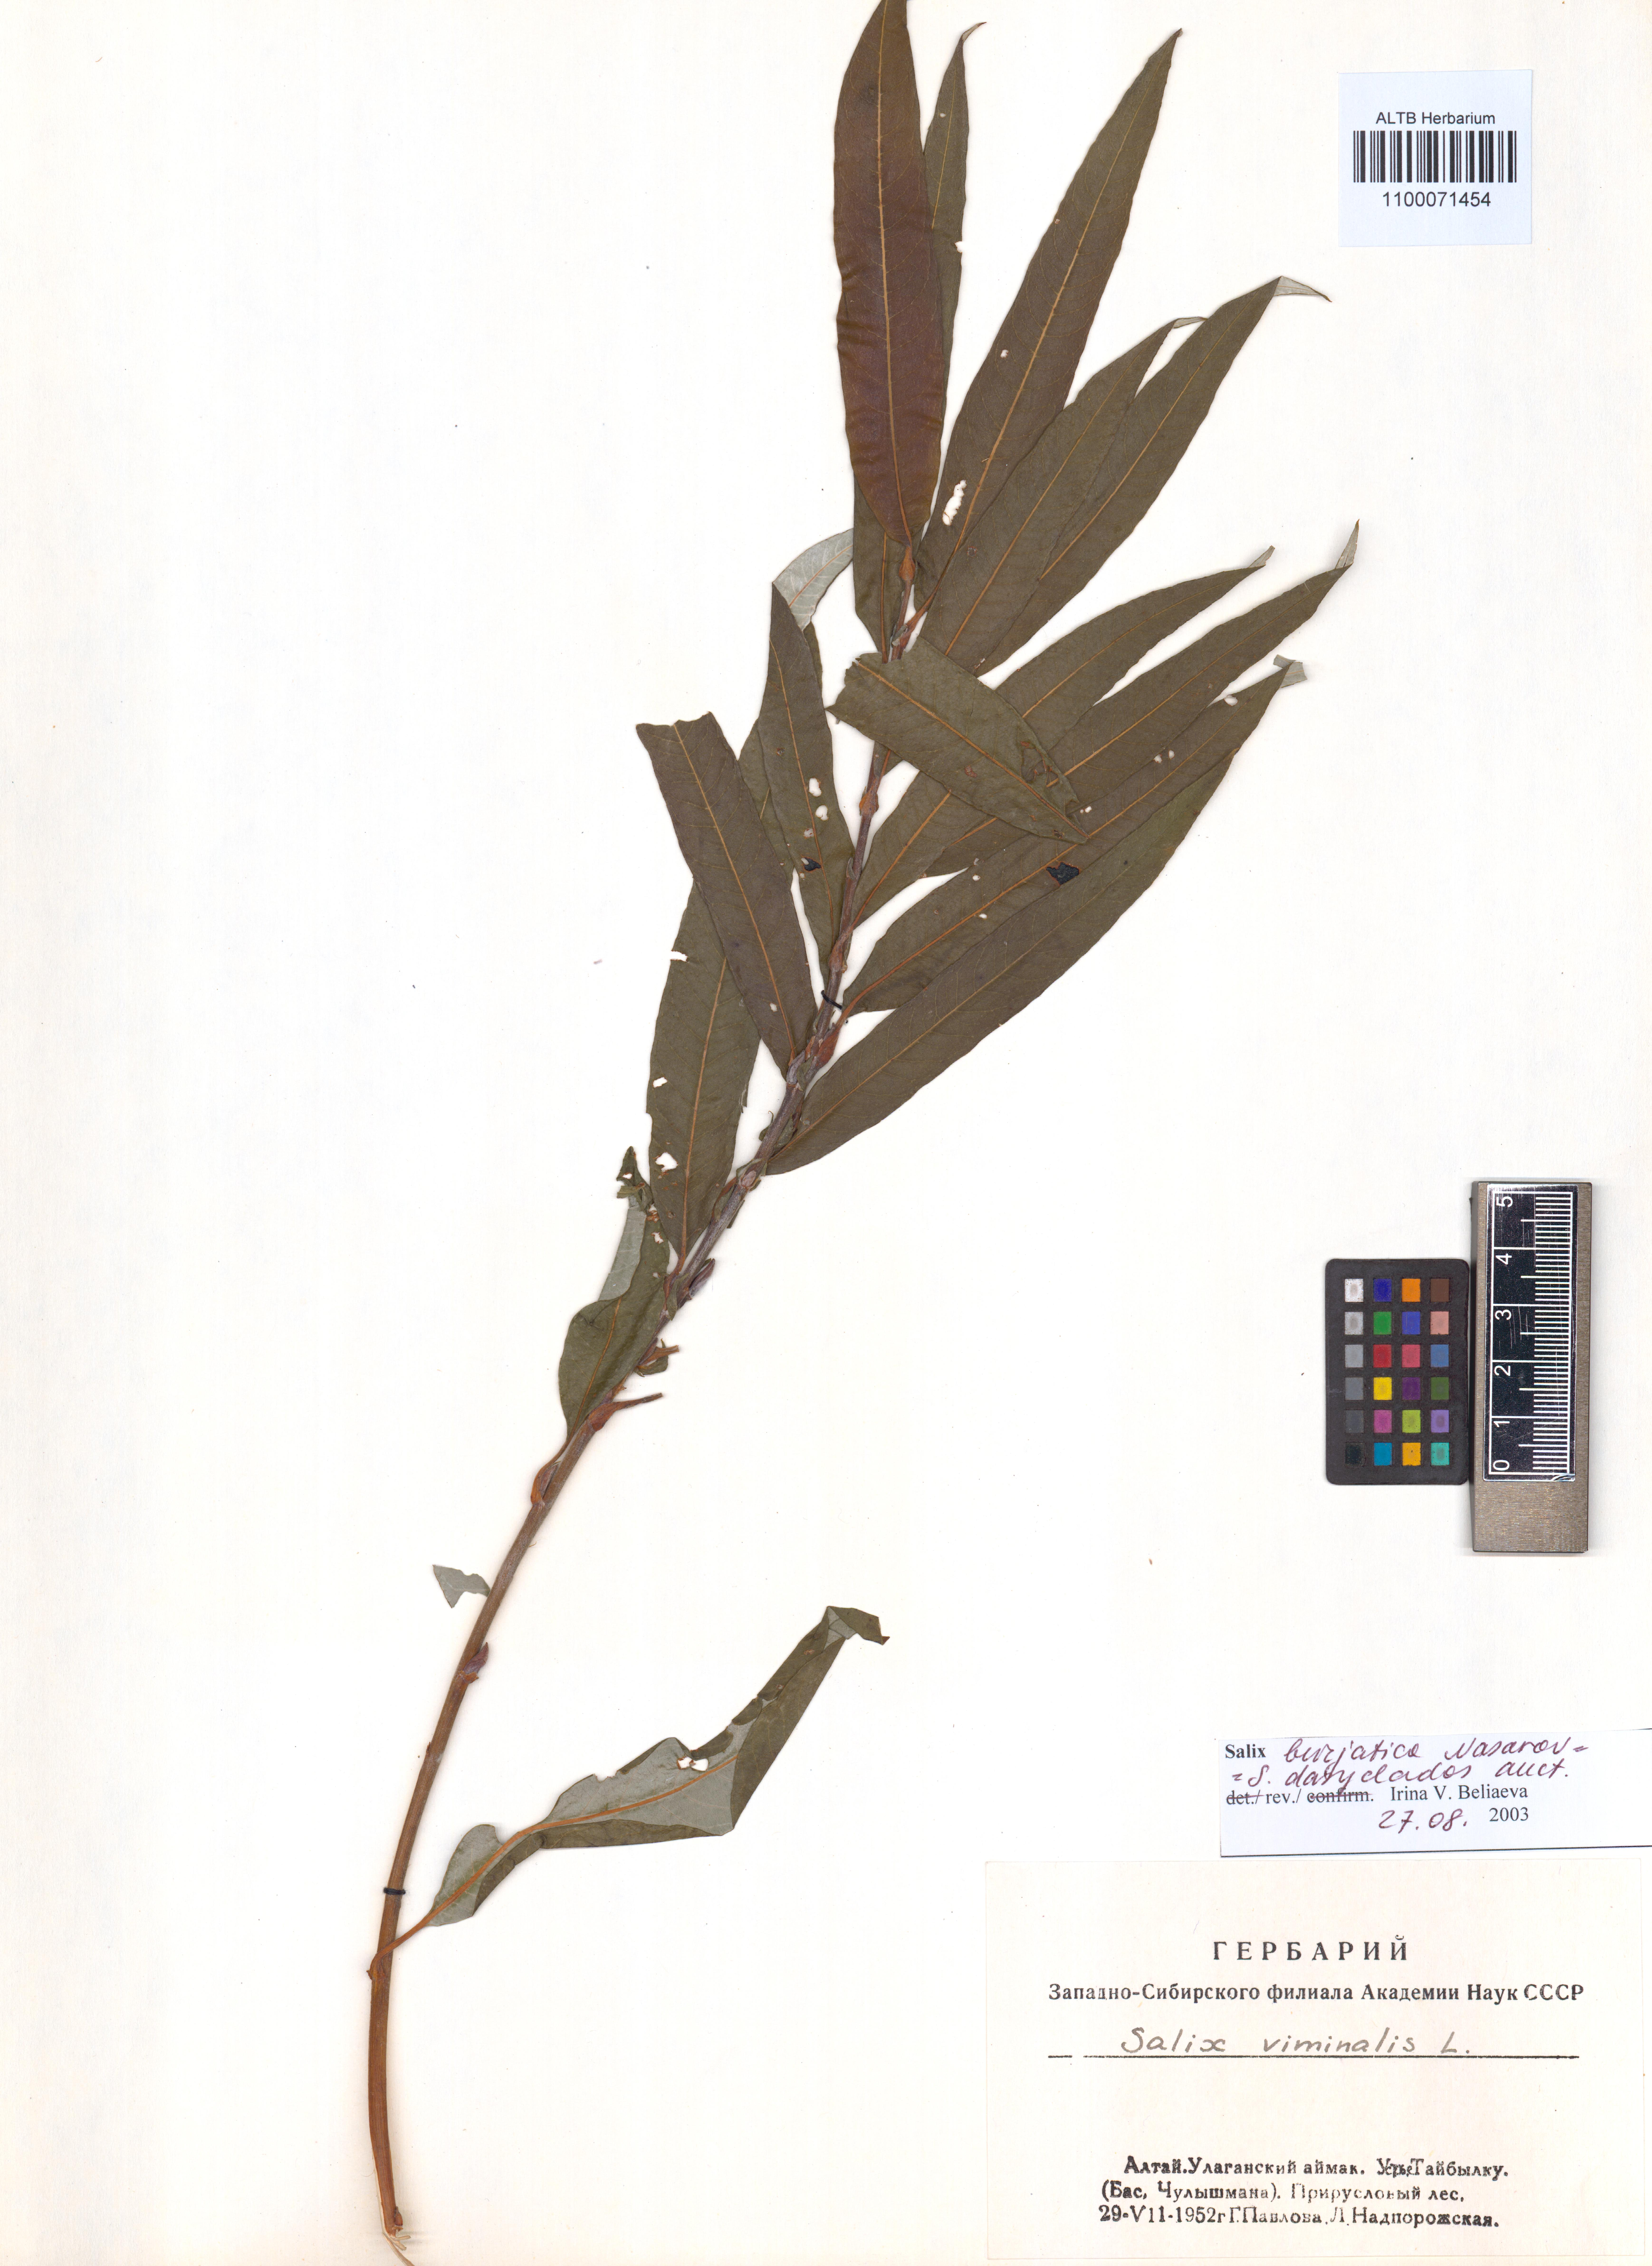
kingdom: Plantae
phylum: Tracheophyta
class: Magnoliopsida
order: Malpighiales
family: Salicaceae
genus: Salix
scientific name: Salix gmelinii
